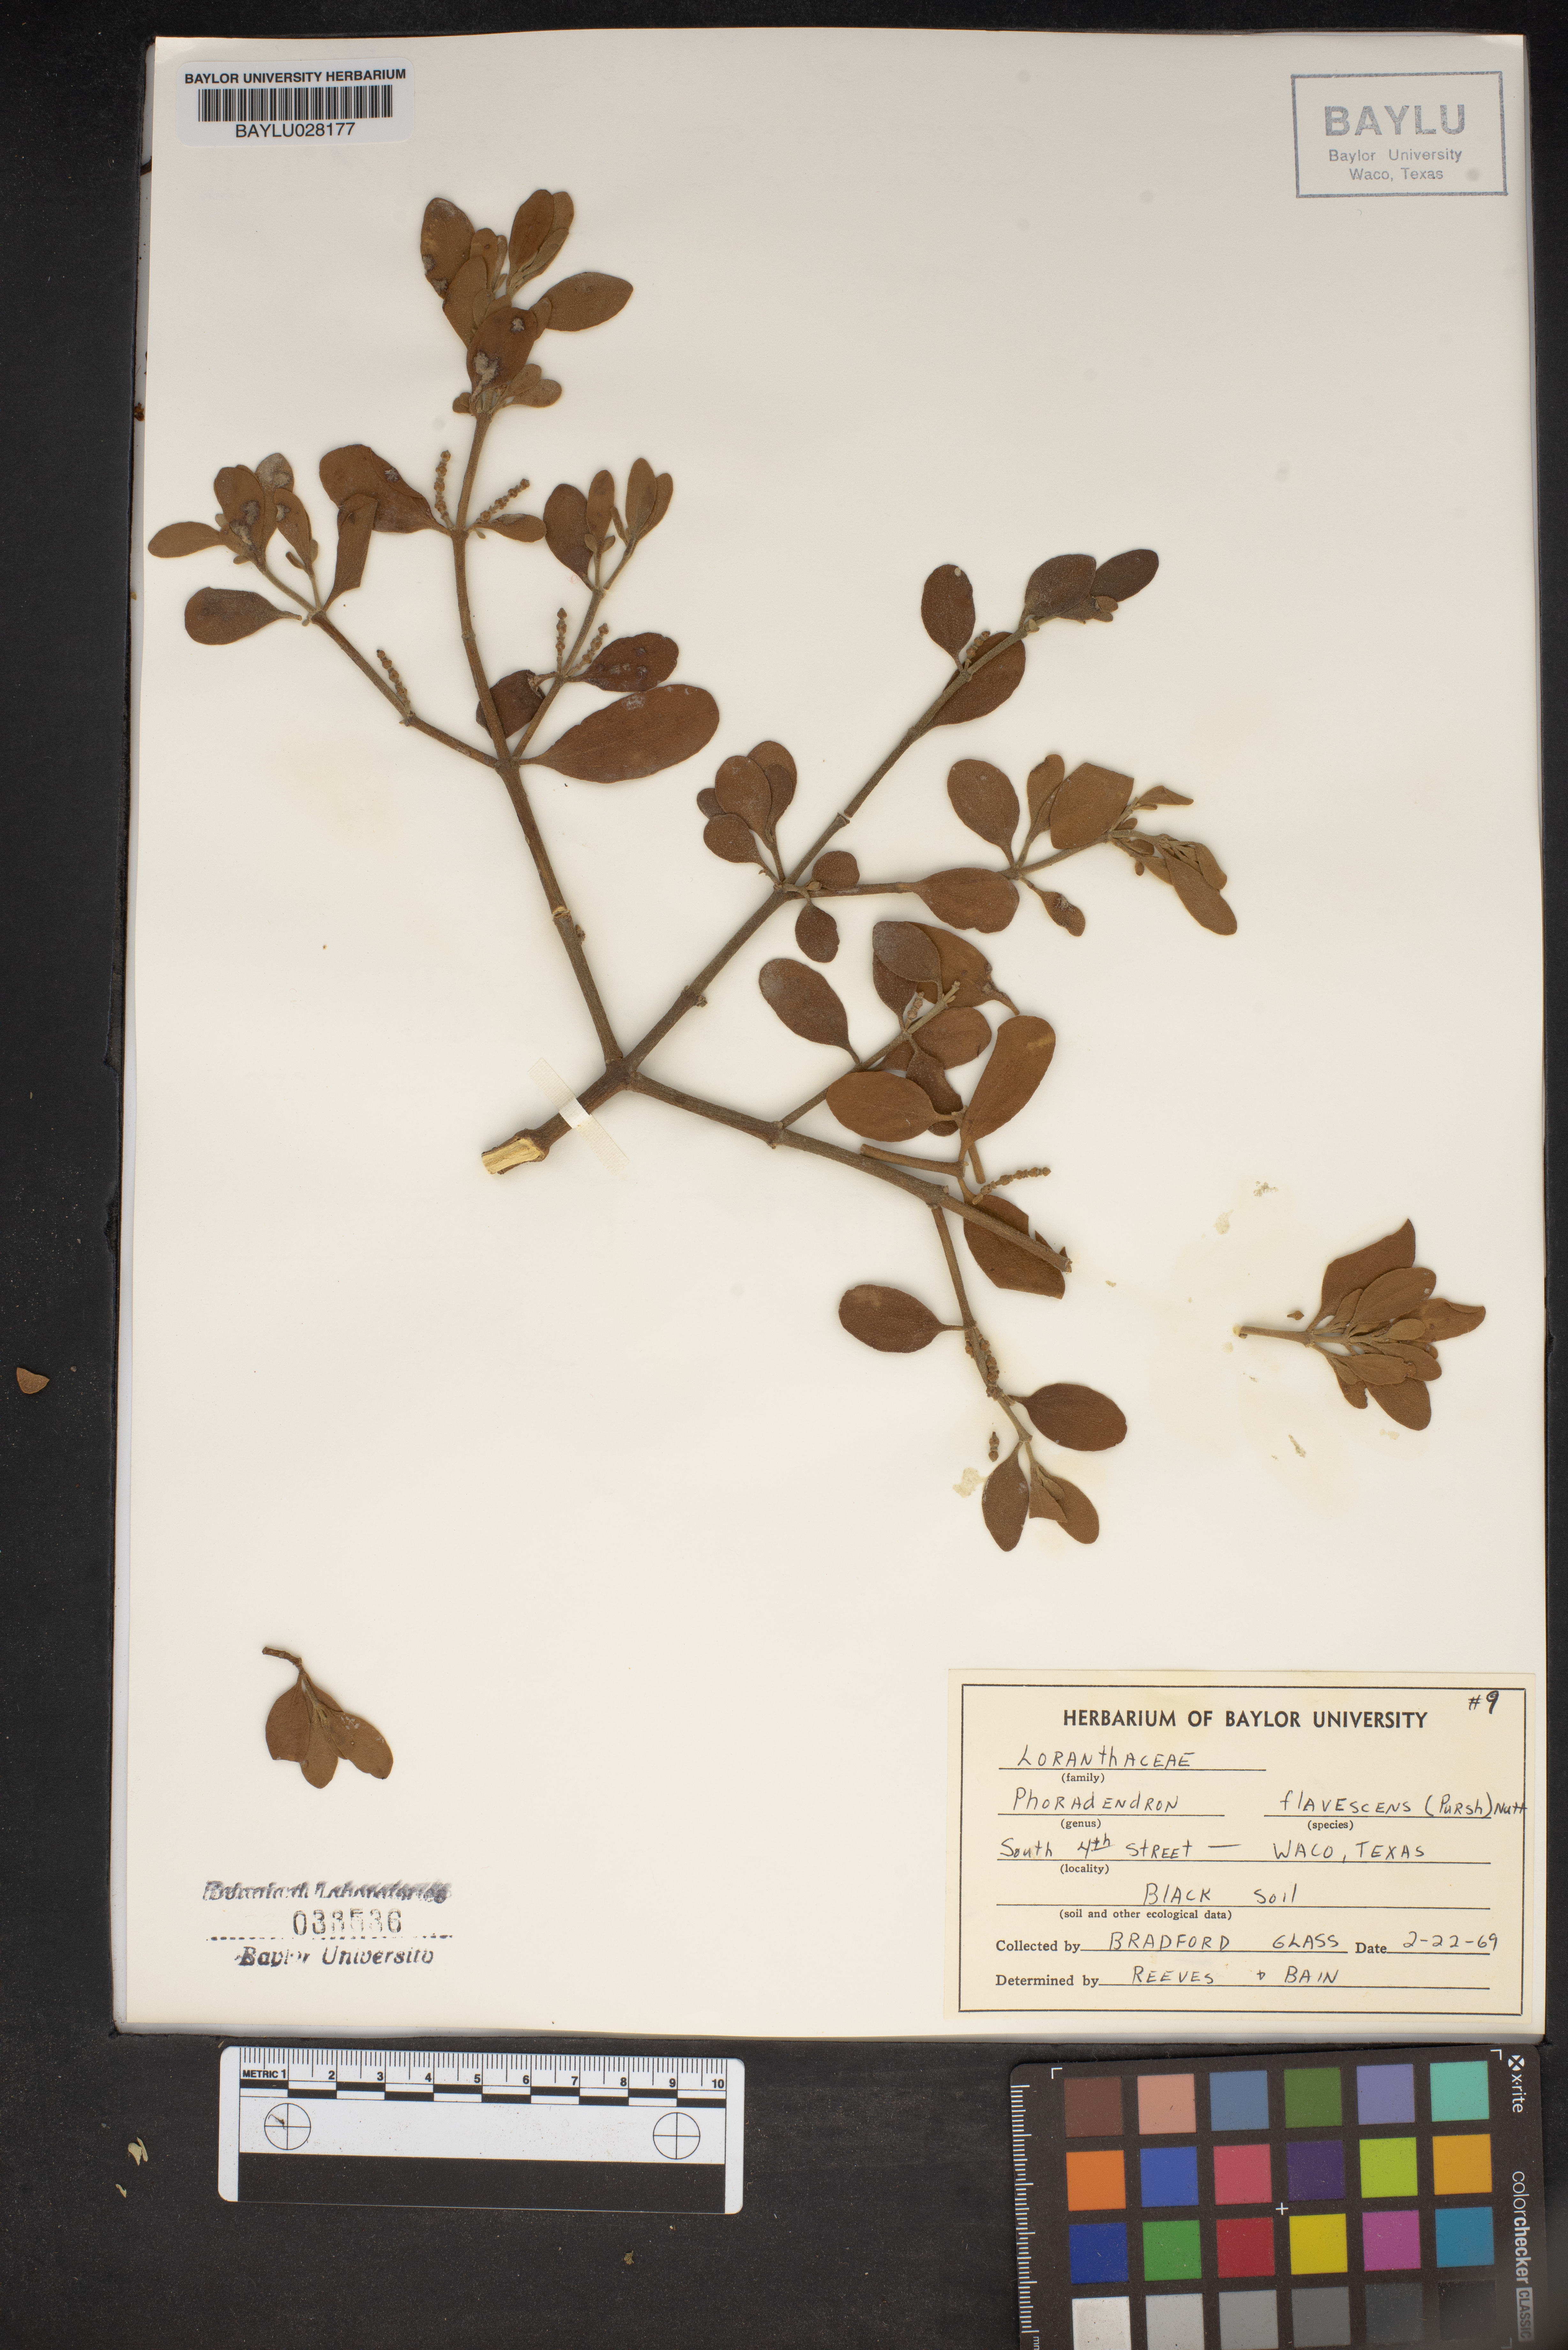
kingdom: Plantae
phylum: Tracheophyta
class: Magnoliopsida
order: Santalales
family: Viscaceae
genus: Phoradendron
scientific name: Phoradendron leucarpum
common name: Pacific mistletoe
